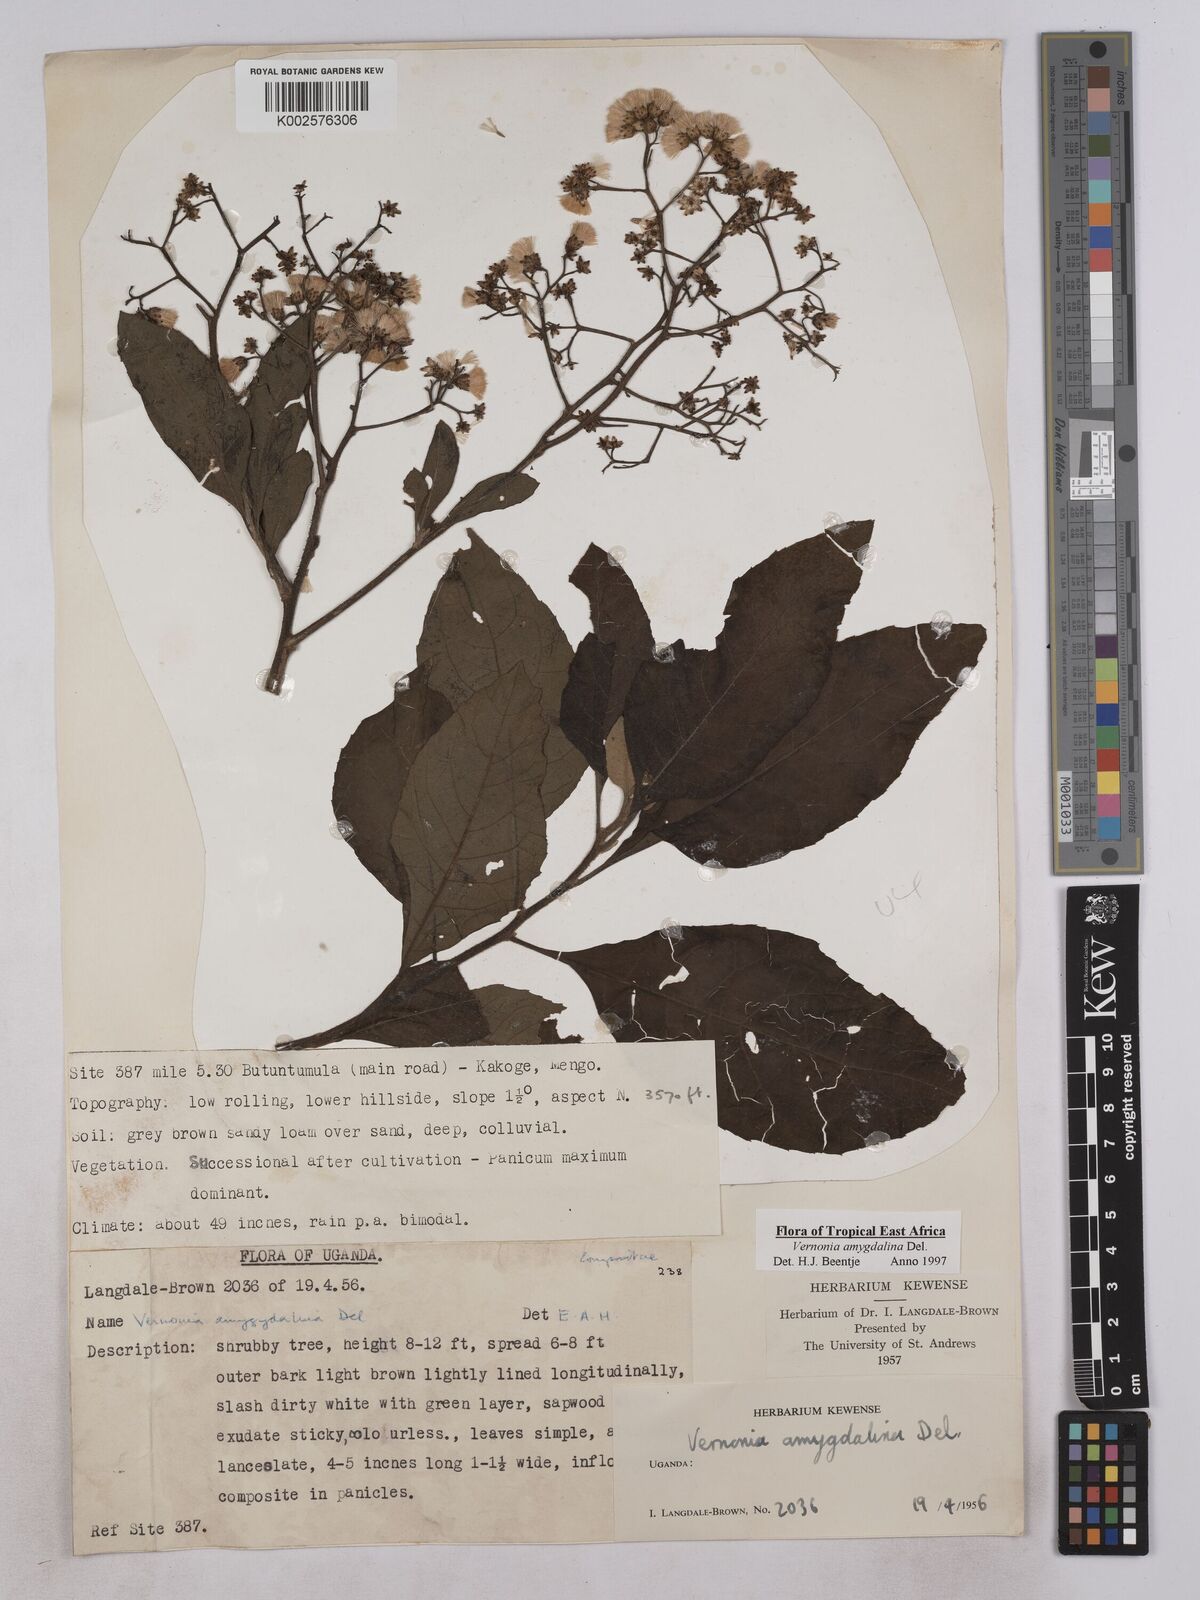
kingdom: Plantae
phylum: Tracheophyta
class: Magnoliopsida
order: Asterales
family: Asteraceae
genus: Gymnanthemum
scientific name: Gymnanthemum amygdalinum
